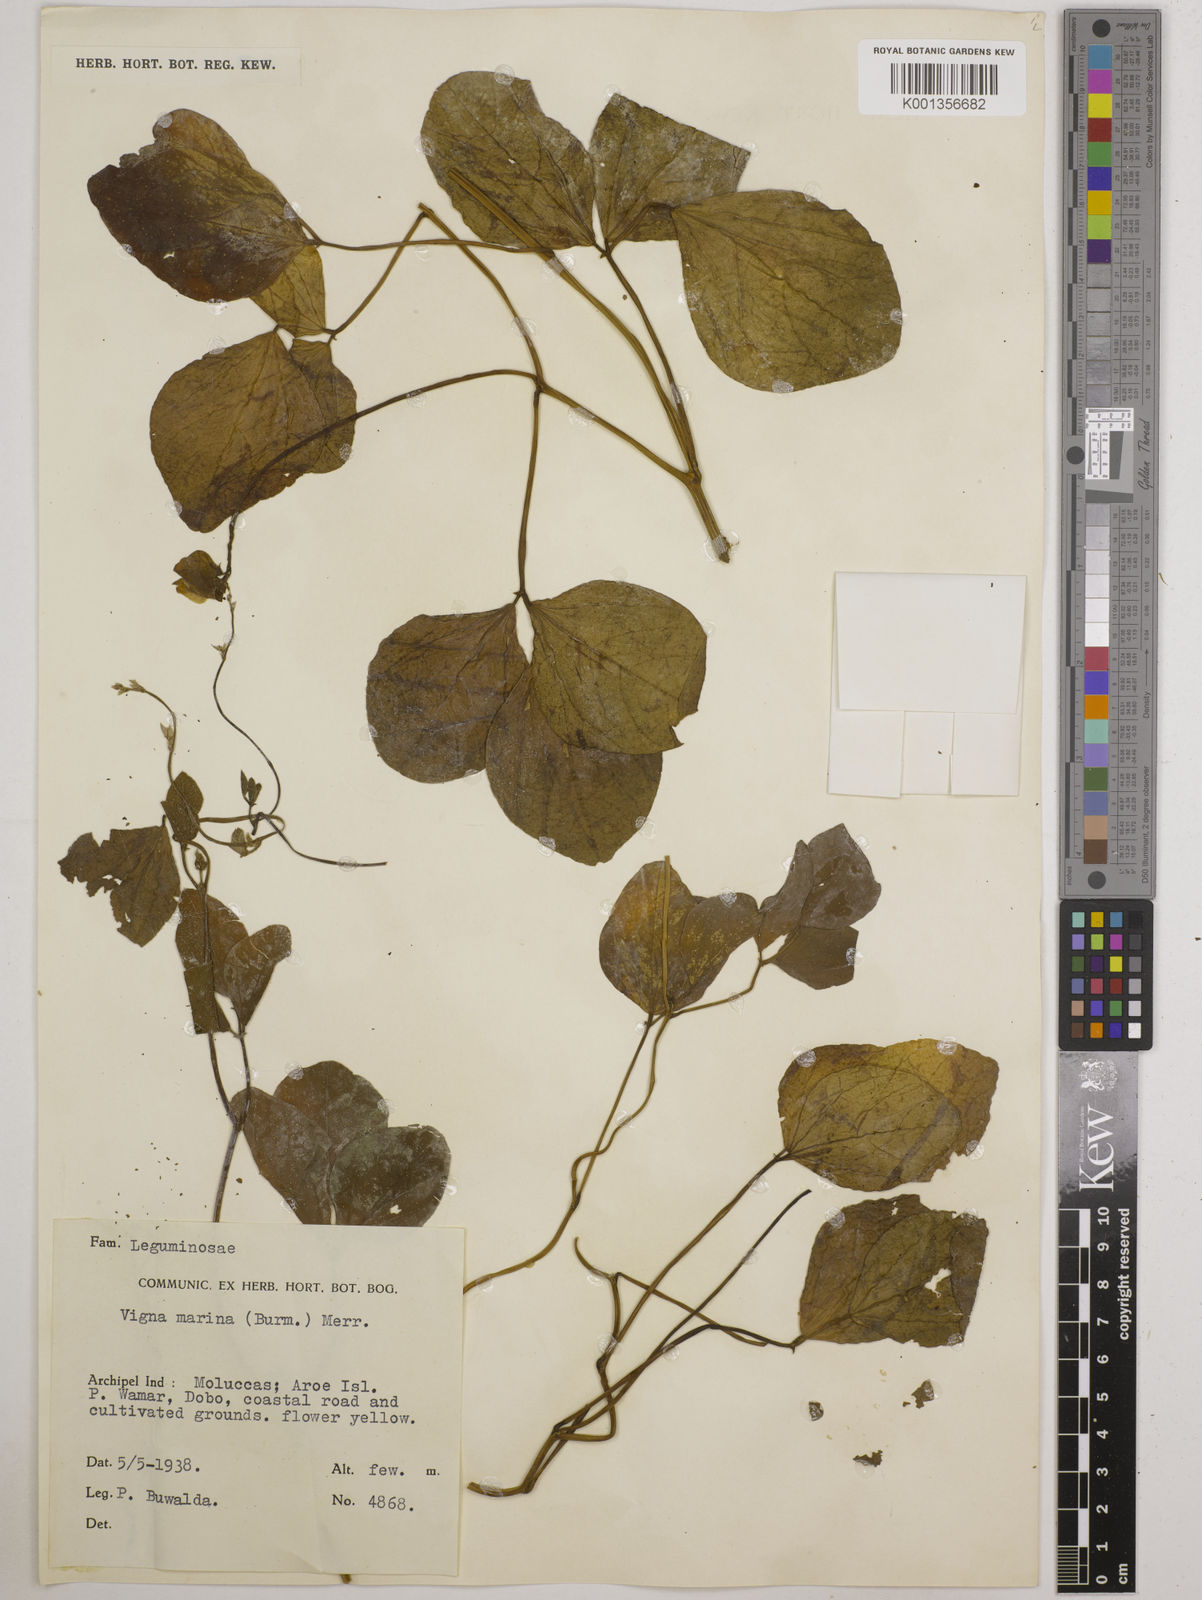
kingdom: Plantae
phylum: Tracheophyta
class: Magnoliopsida
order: Fabales
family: Fabaceae
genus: Vigna
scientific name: Vigna marina
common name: Dune-bean
